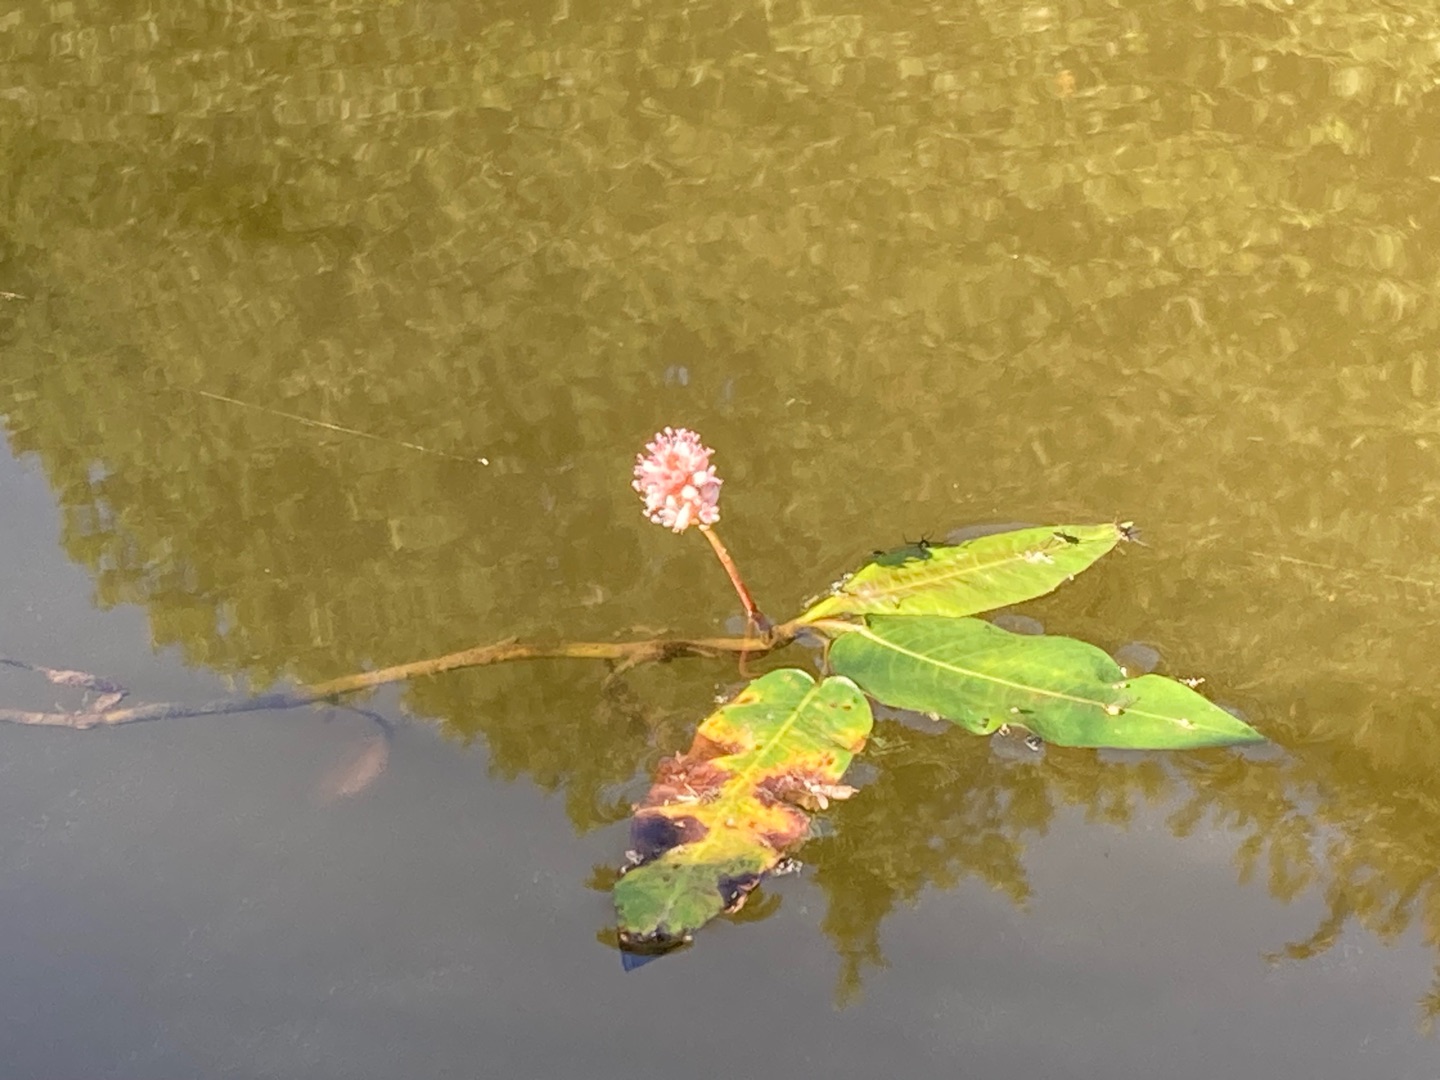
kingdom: Plantae
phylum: Tracheophyta
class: Magnoliopsida
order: Caryophyllales
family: Polygonaceae
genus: Persicaria
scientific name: Persicaria amphibia
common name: Vand-pileurt
